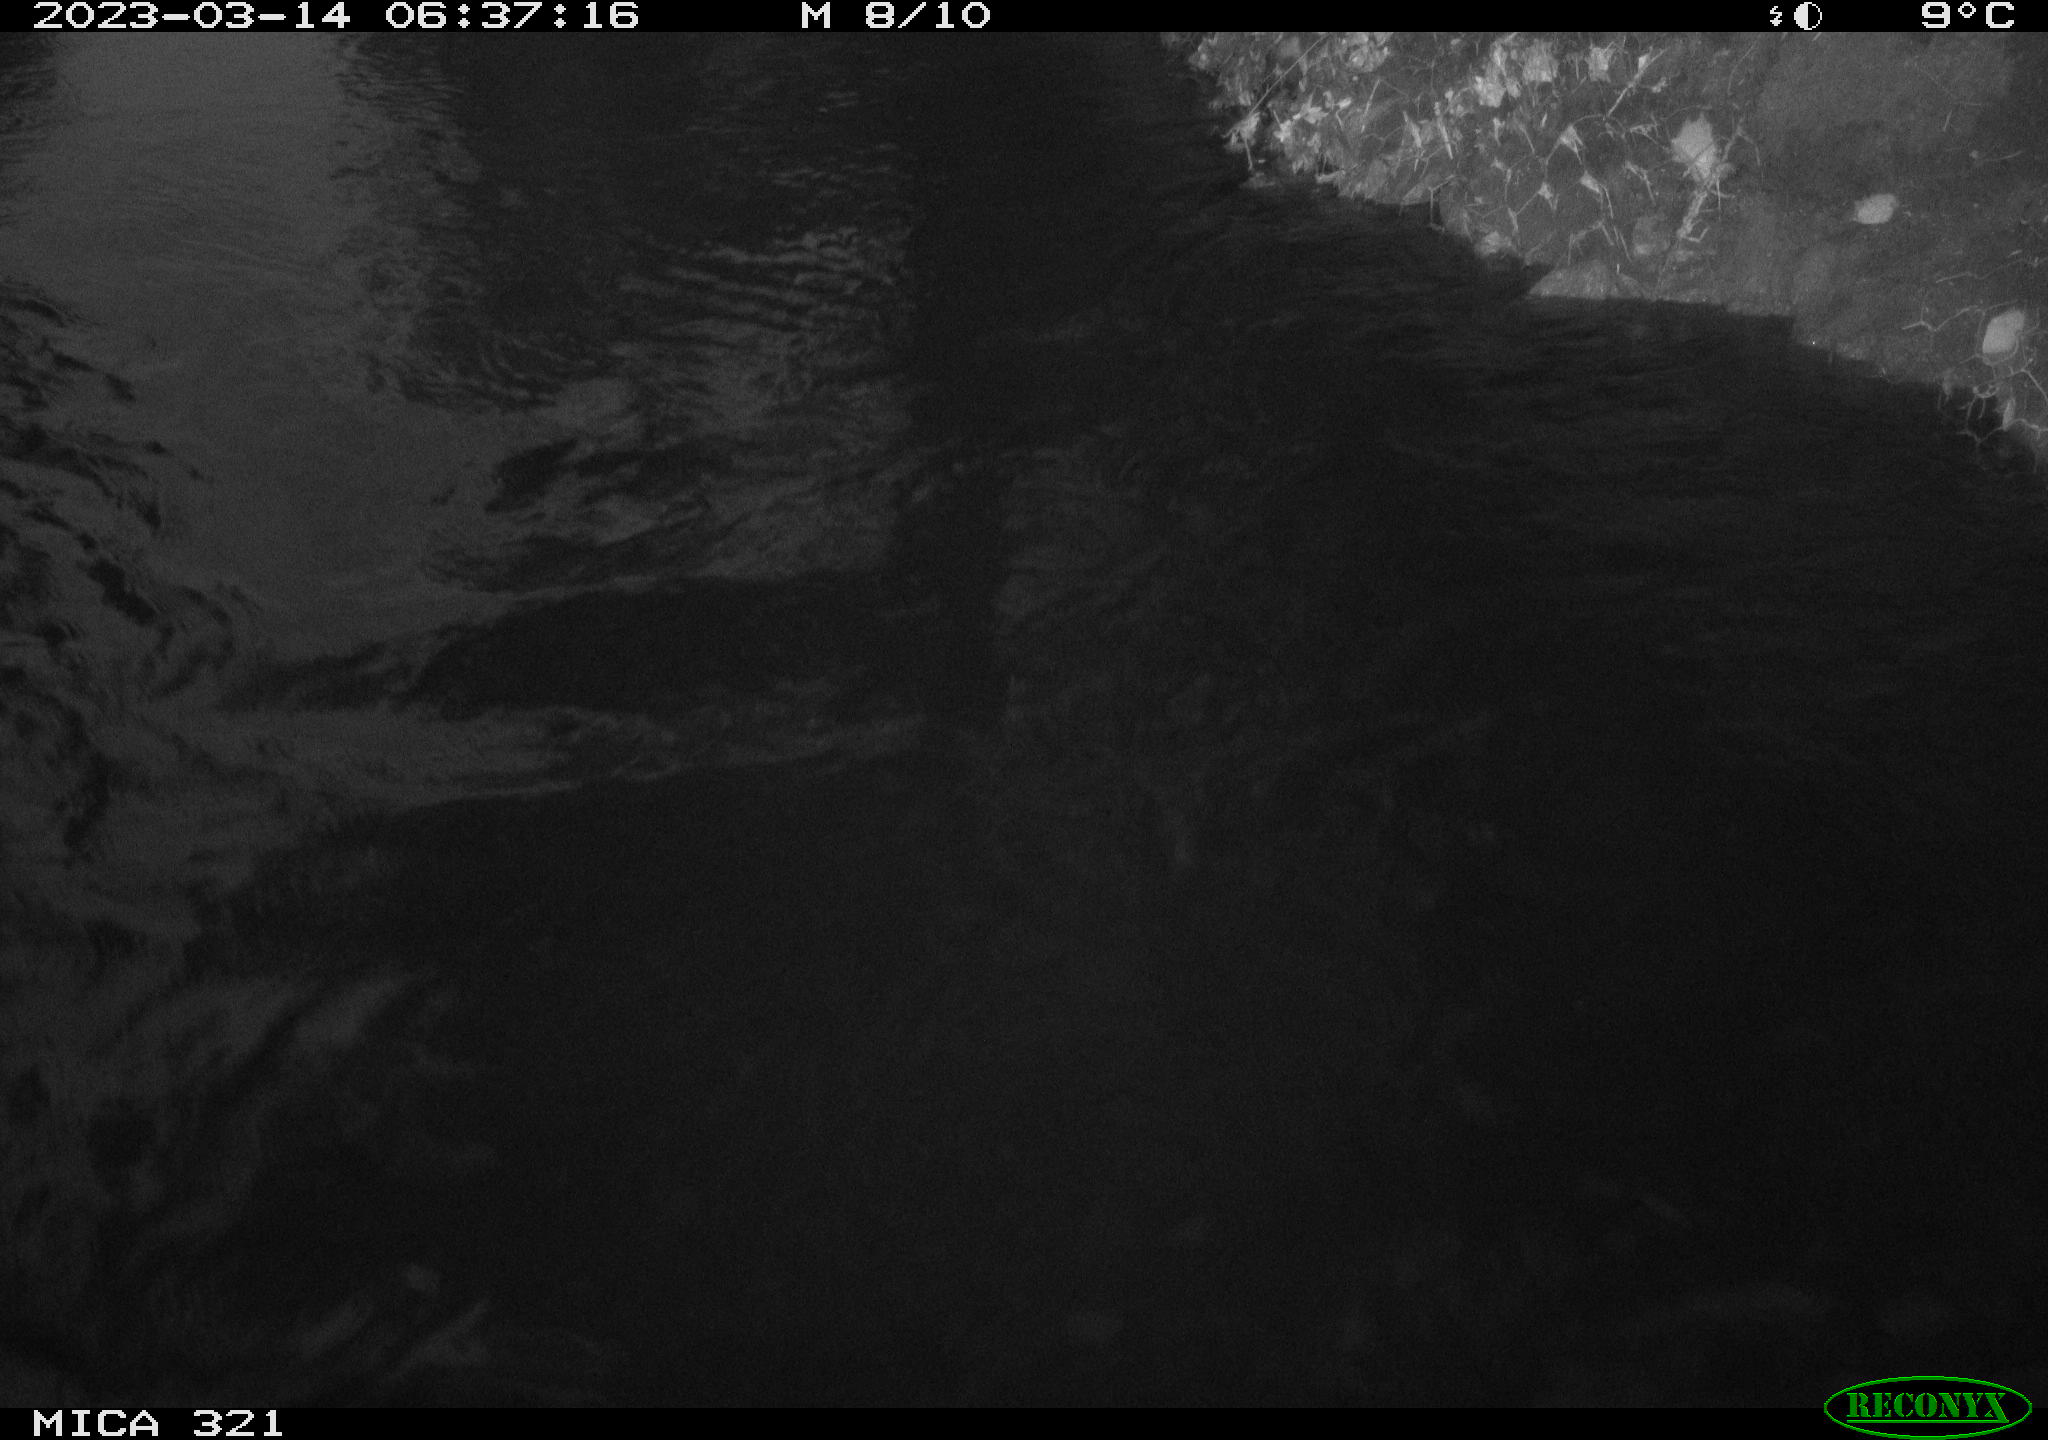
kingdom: Animalia
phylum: Chordata
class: Mammalia
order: Rodentia
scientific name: Rodentia
